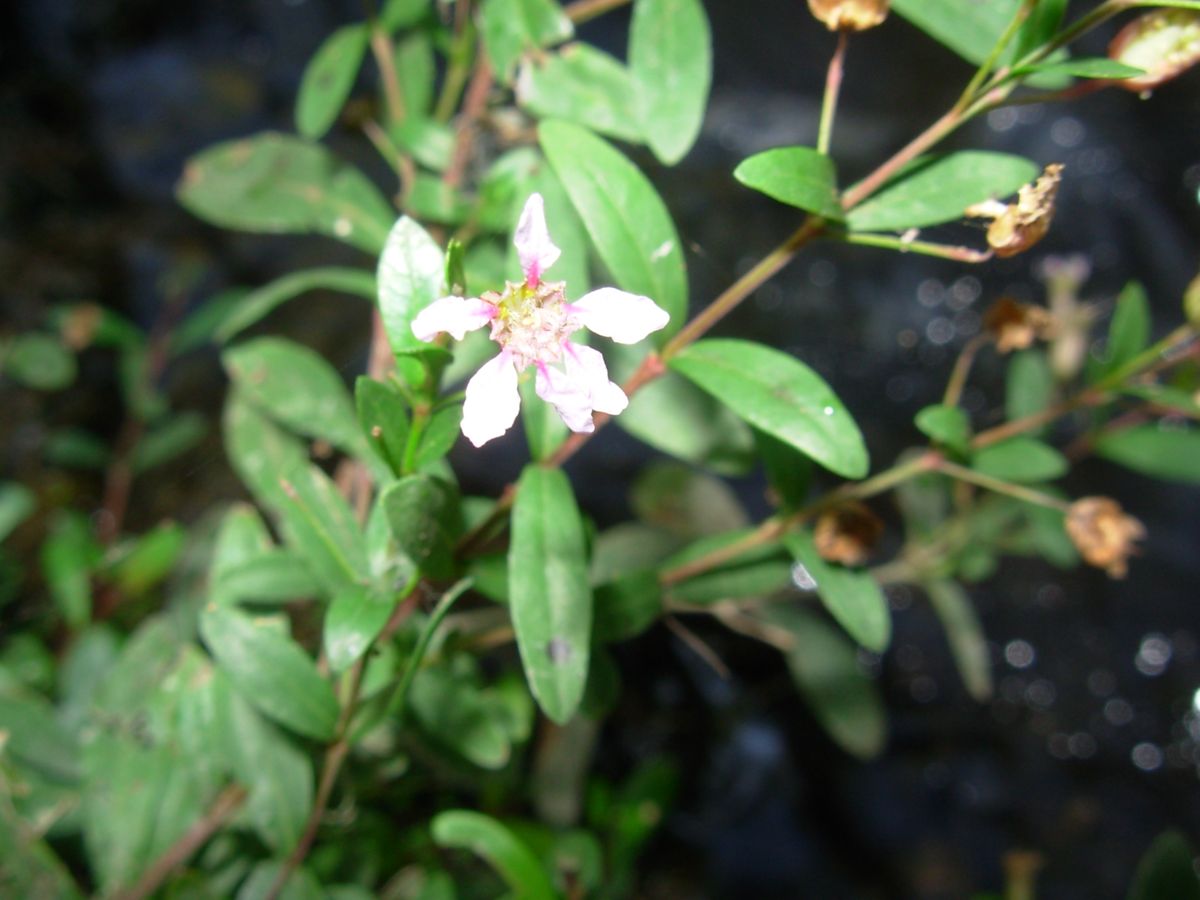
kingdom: Plantae
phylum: Tracheophyta
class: Magnoliopsida
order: Myrtales
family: Lythraceae
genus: Cuphea
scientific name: Cuphea utriculosa
